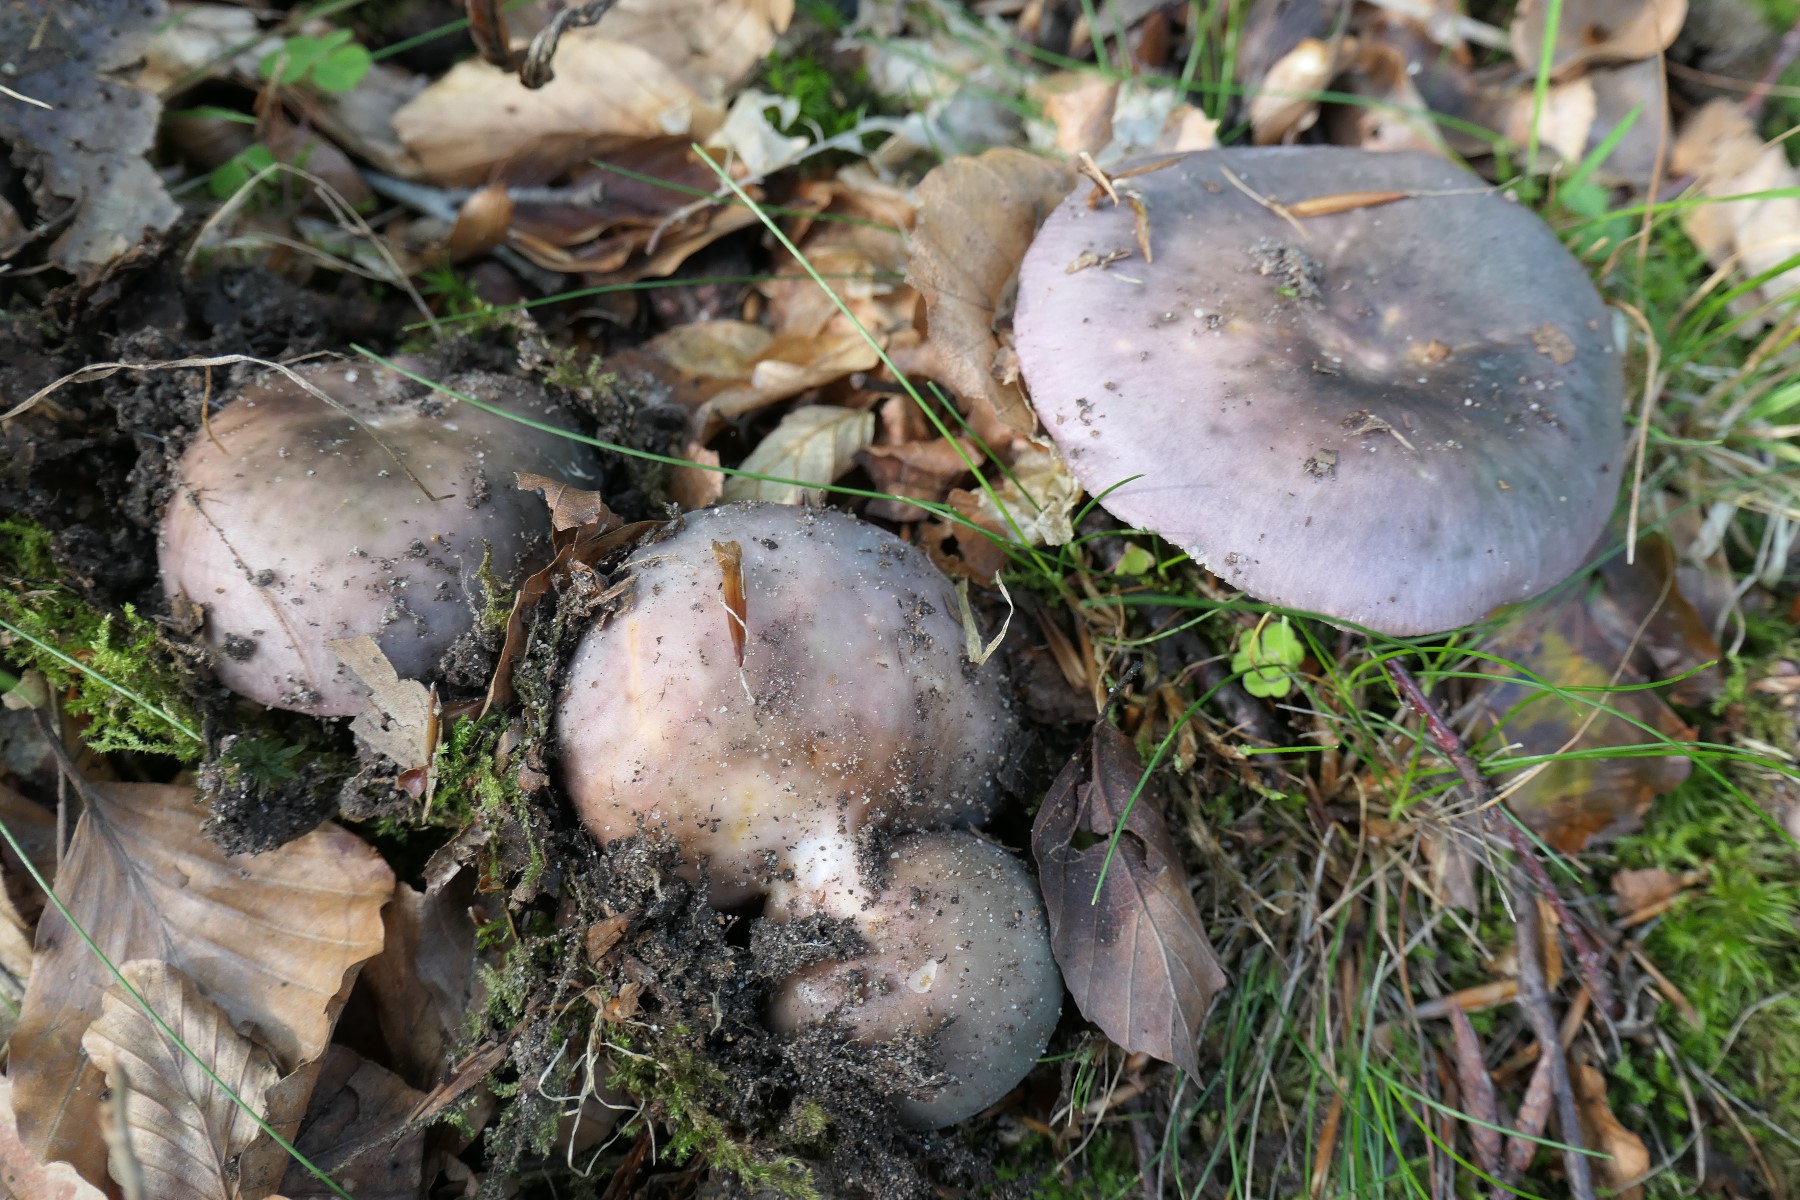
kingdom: Fungi
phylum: Basidiomycota
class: Agaricomycetes
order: Russulales
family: Russulaceae
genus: Russula
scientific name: Russula cyanoxantha
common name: broget skørhat
